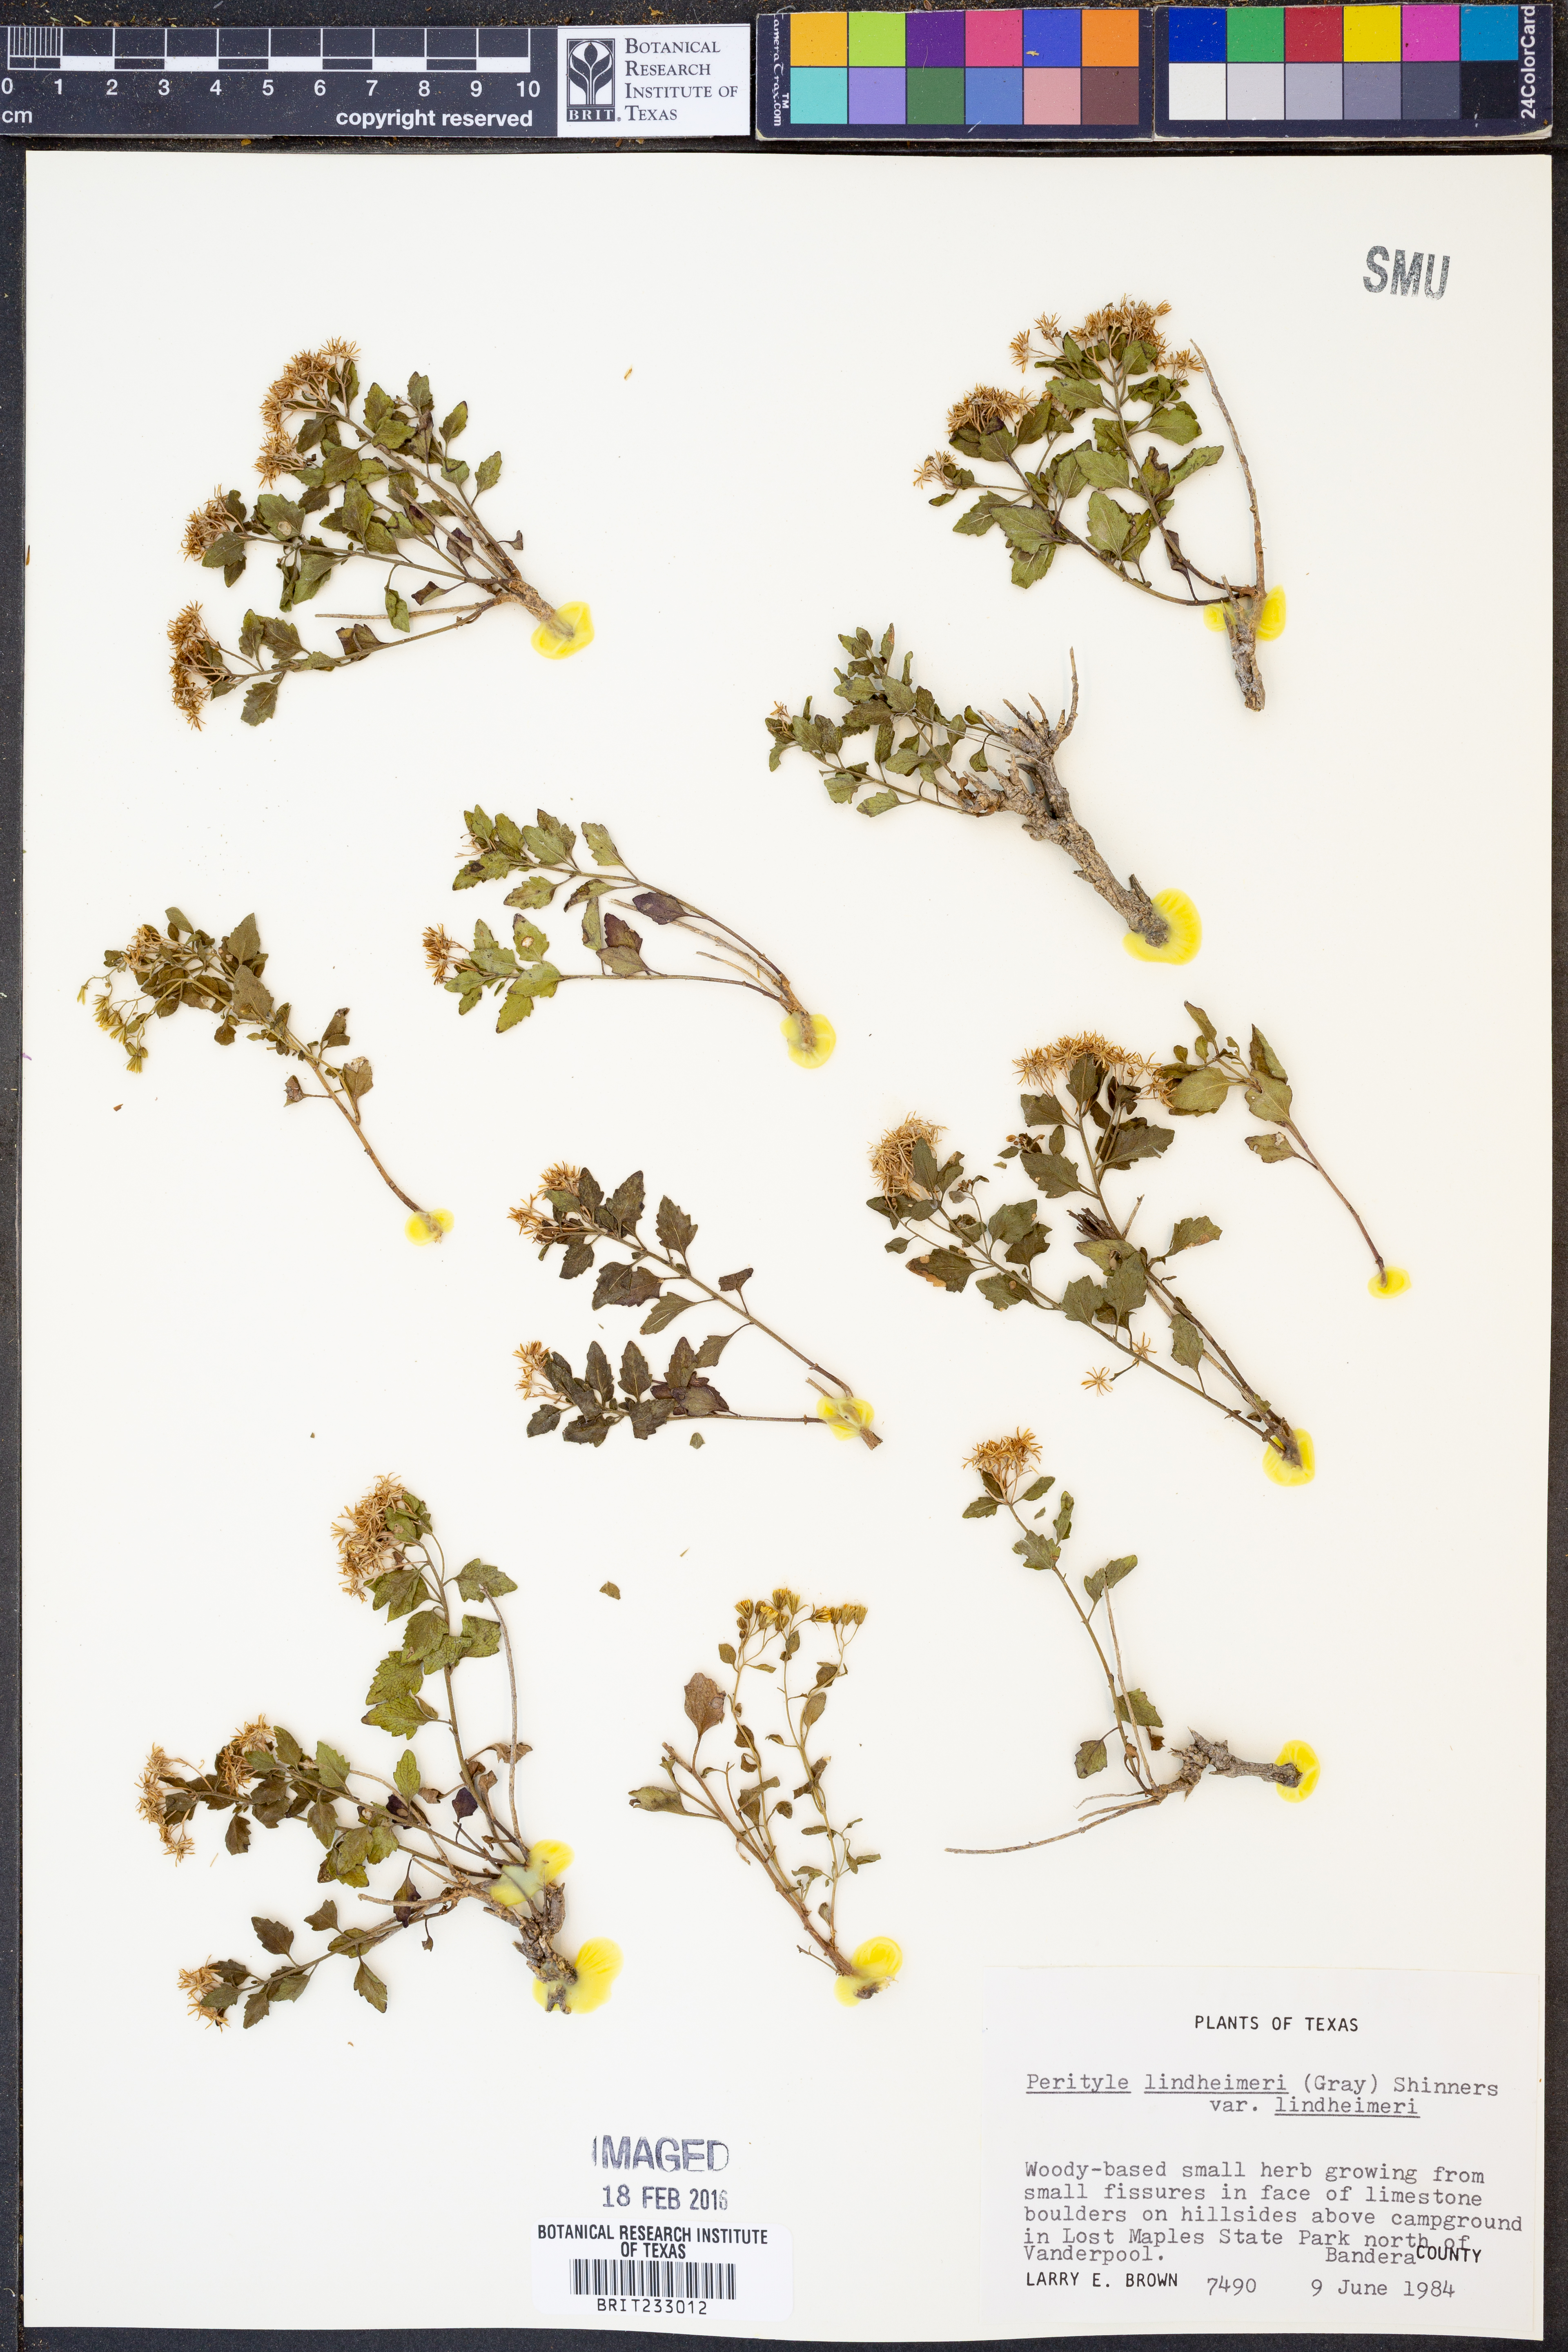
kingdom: Plantae
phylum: Tracheophyta
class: Magnoliopsida
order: Asterales
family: Asteraceae
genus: Laphamia
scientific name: Laphamia lindheimeri
